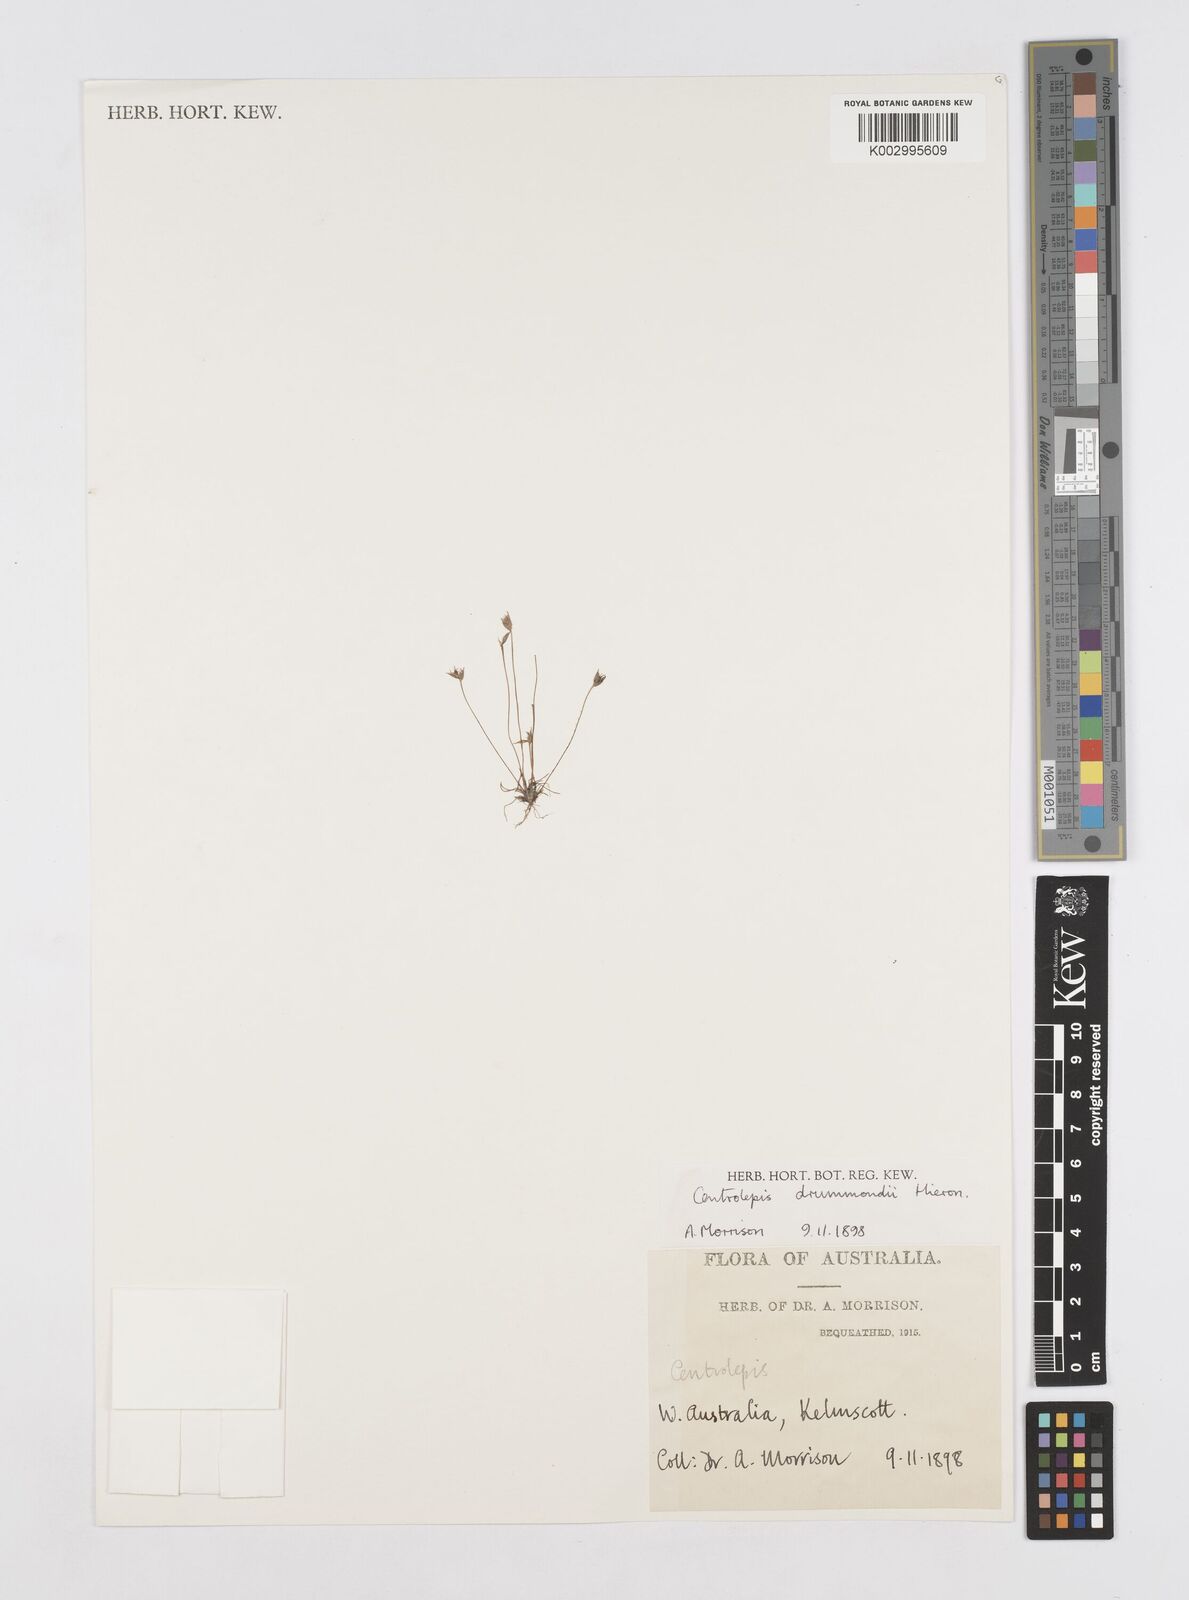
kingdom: Plantae
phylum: Tracheophyta
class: Liliopsida
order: Poales
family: Restionaceae
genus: Centrolepis
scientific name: Centrolepis drummondiana
